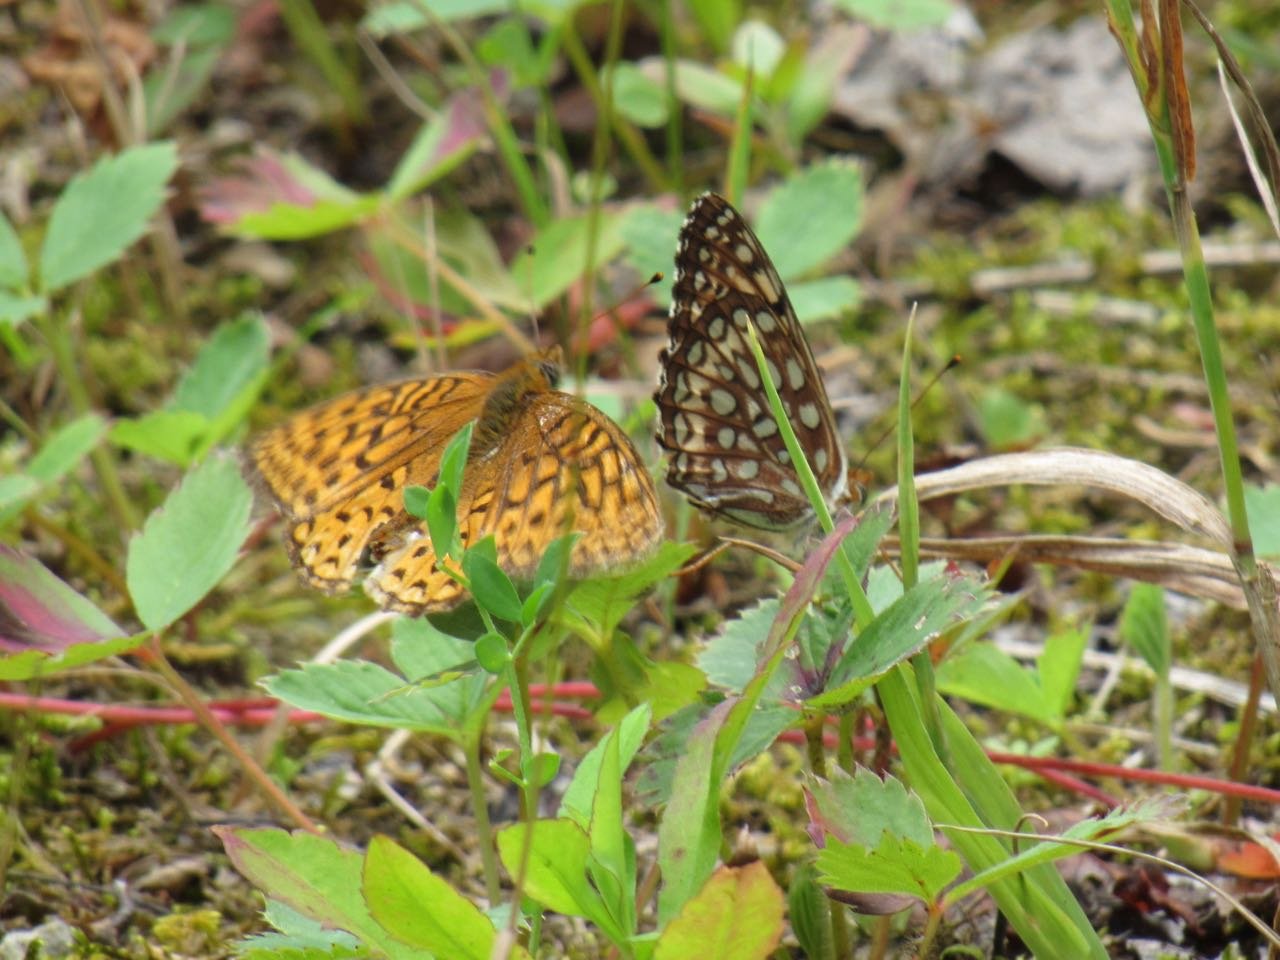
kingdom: Animalia
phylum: Arthropoda
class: Insecta
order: Lepidoptera
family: Nymphalidae
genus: Speyeria
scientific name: Speyeria atlantis
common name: Atlantis Fritillary
